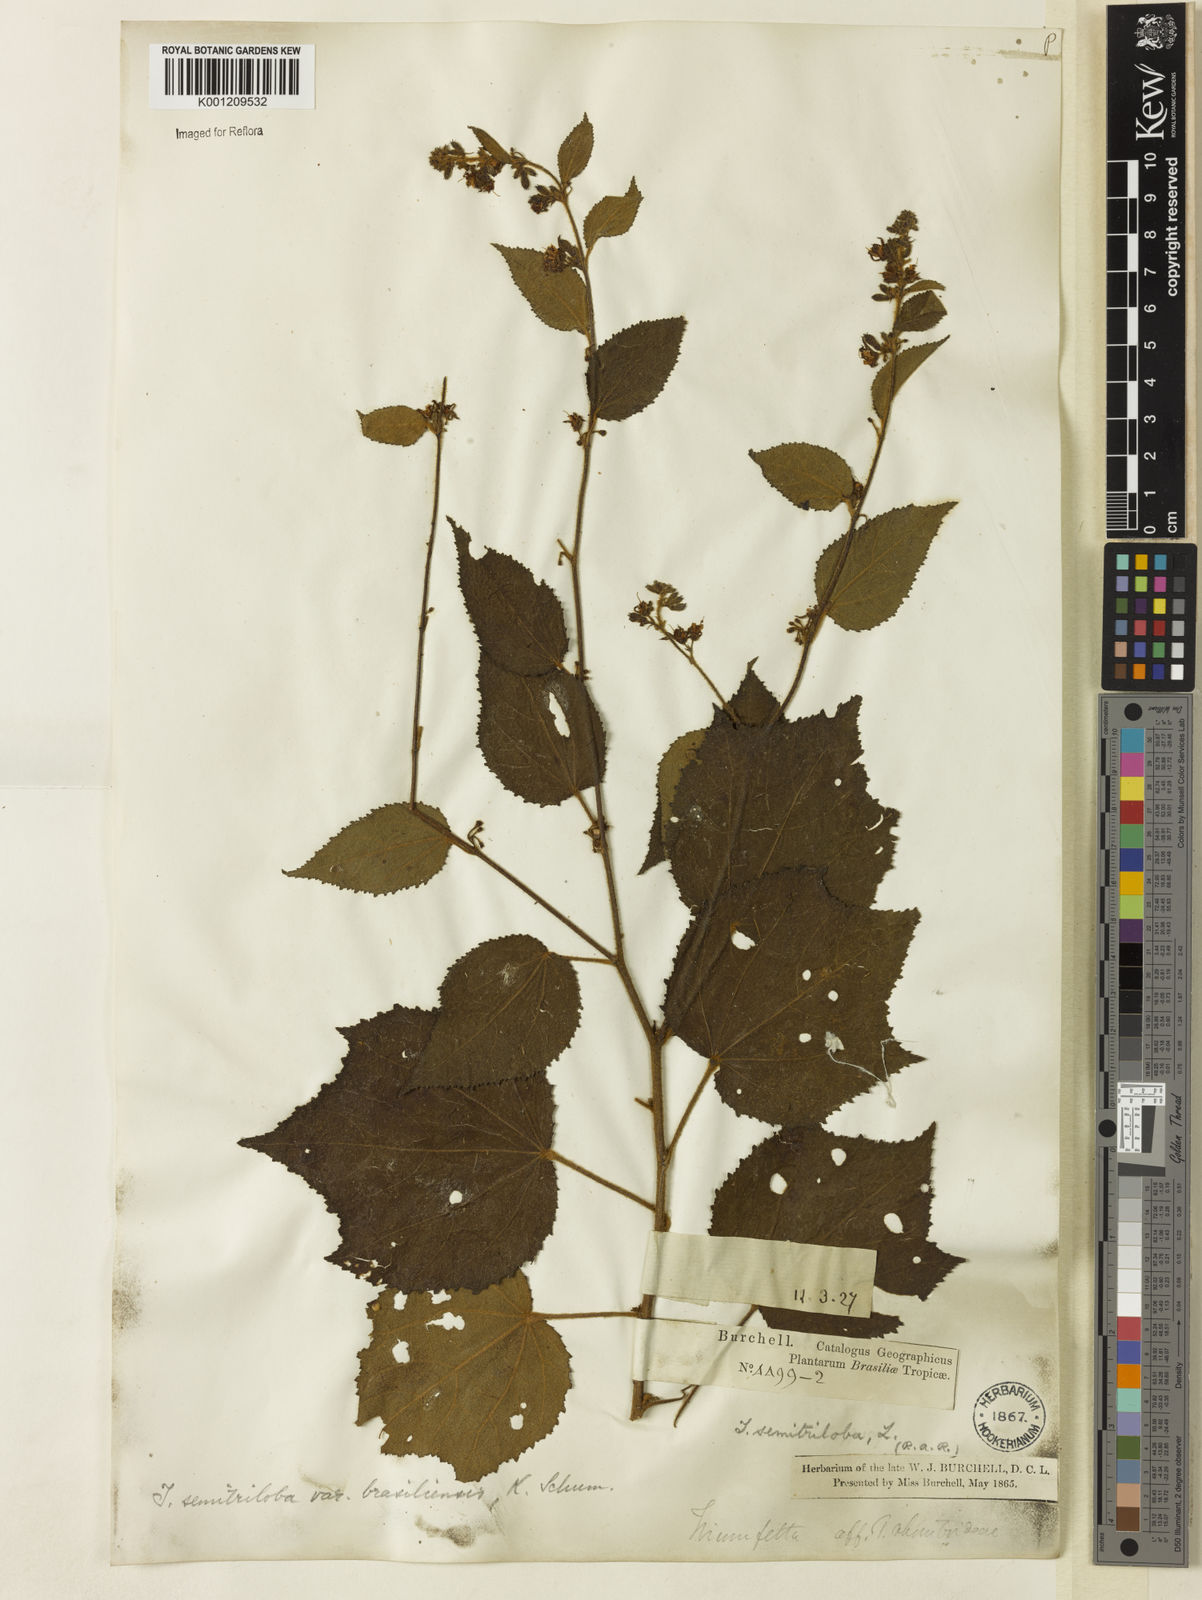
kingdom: Plantae
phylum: Tracheophyta
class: Magnoliopsida
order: Malvales
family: Malvaceae
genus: Triumfetta
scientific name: Triumfetta semitriloba
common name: Sacramento burbark
